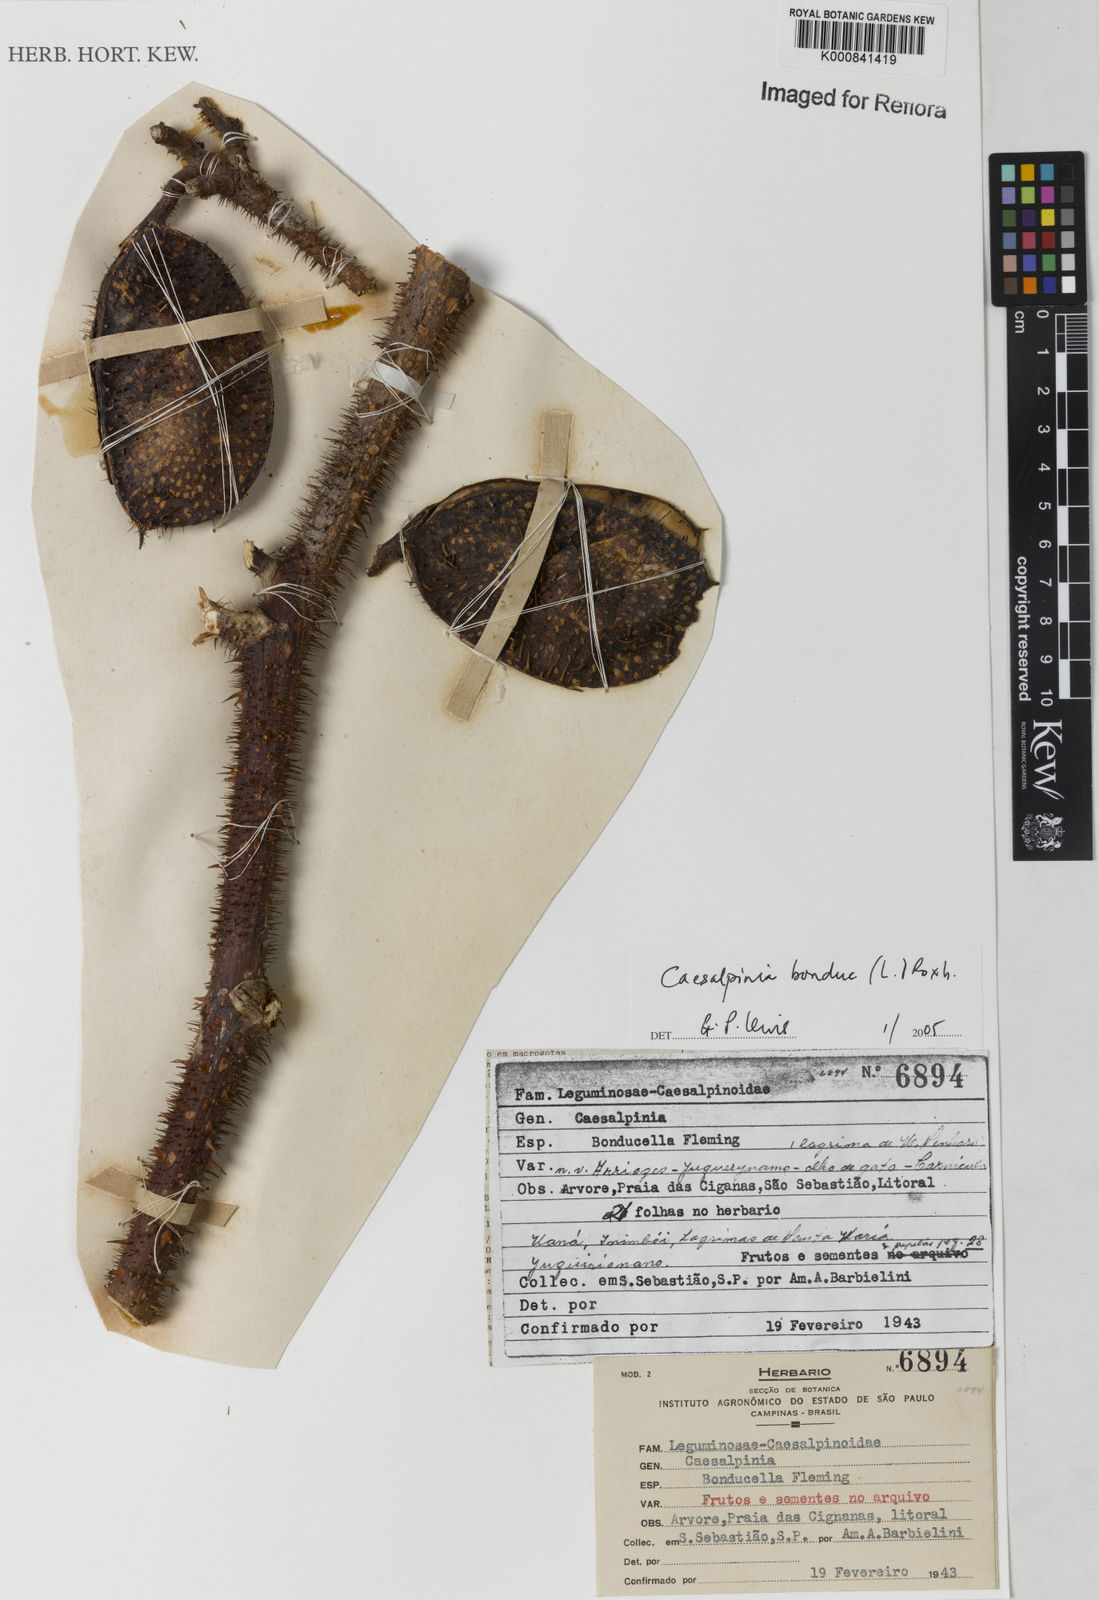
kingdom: Plantae
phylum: Tracheophyta
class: Magnoliopsida
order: Fabales
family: Fabaceae
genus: Guilandina
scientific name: Guilandina bonduc
